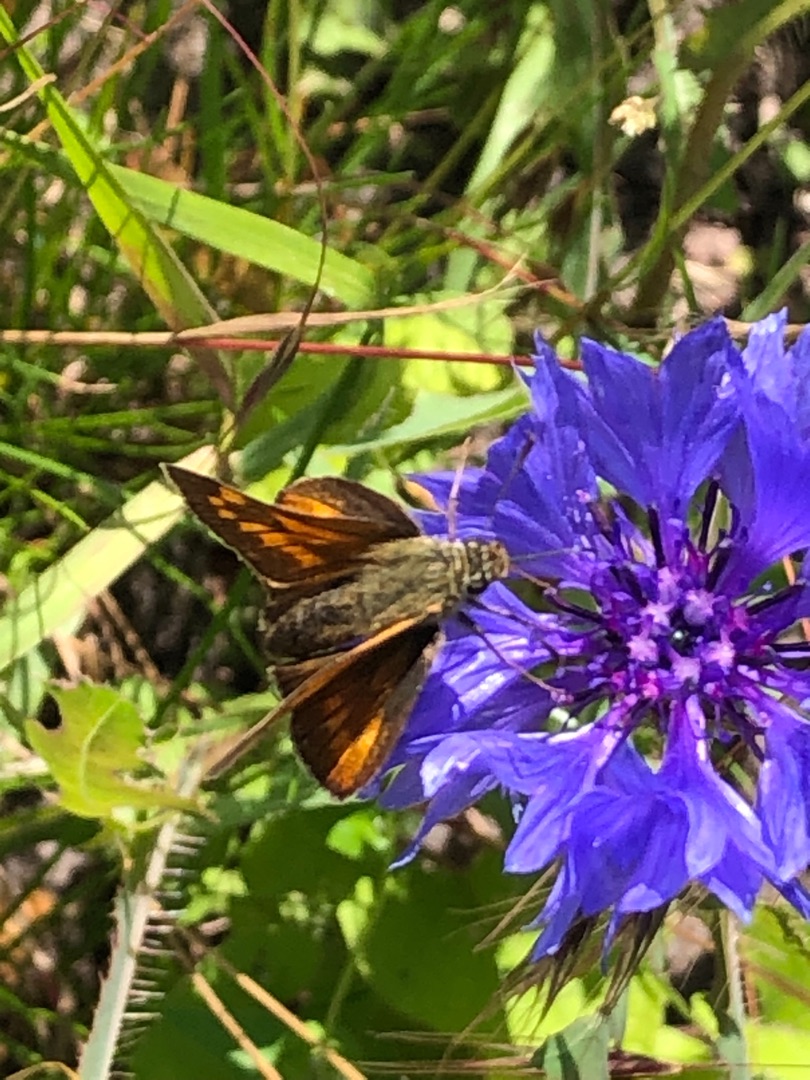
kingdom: Animalia
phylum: Arthropoda
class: Insecta
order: Lepidoptera
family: Hesperiidae
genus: Ochlodes
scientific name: Ochlodes venata
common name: Stor bredpande
